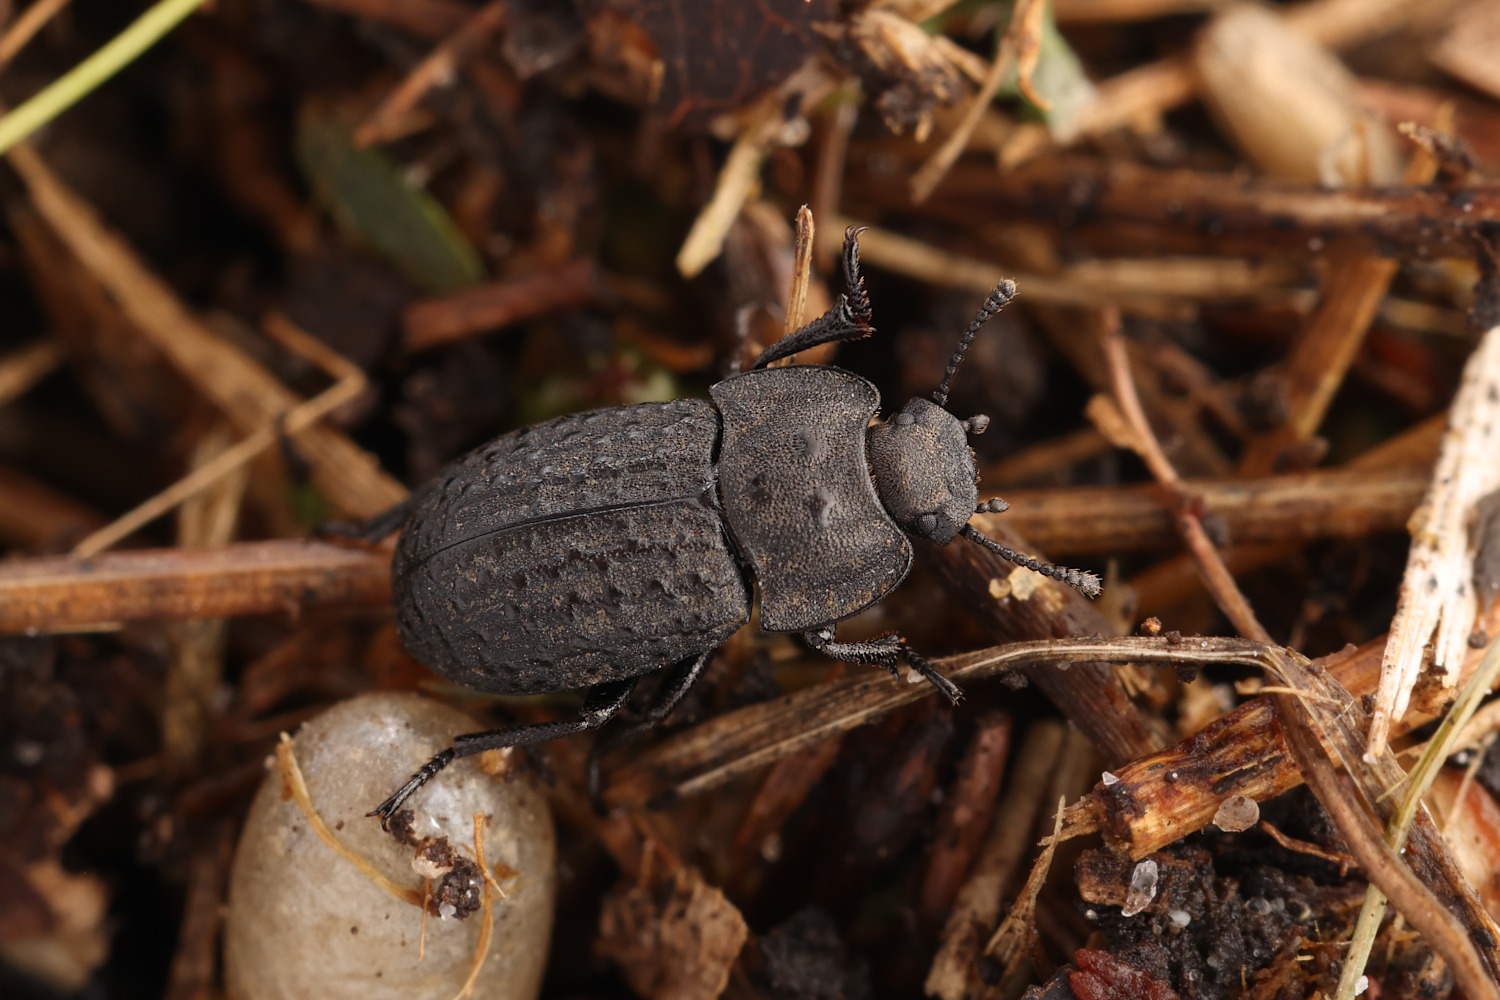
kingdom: Animalia
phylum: Arthropoda
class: Insecta
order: Coleoptera
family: Tenebrionidae
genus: Opatrum
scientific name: Opatrum riparium
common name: Moseskyggebille
